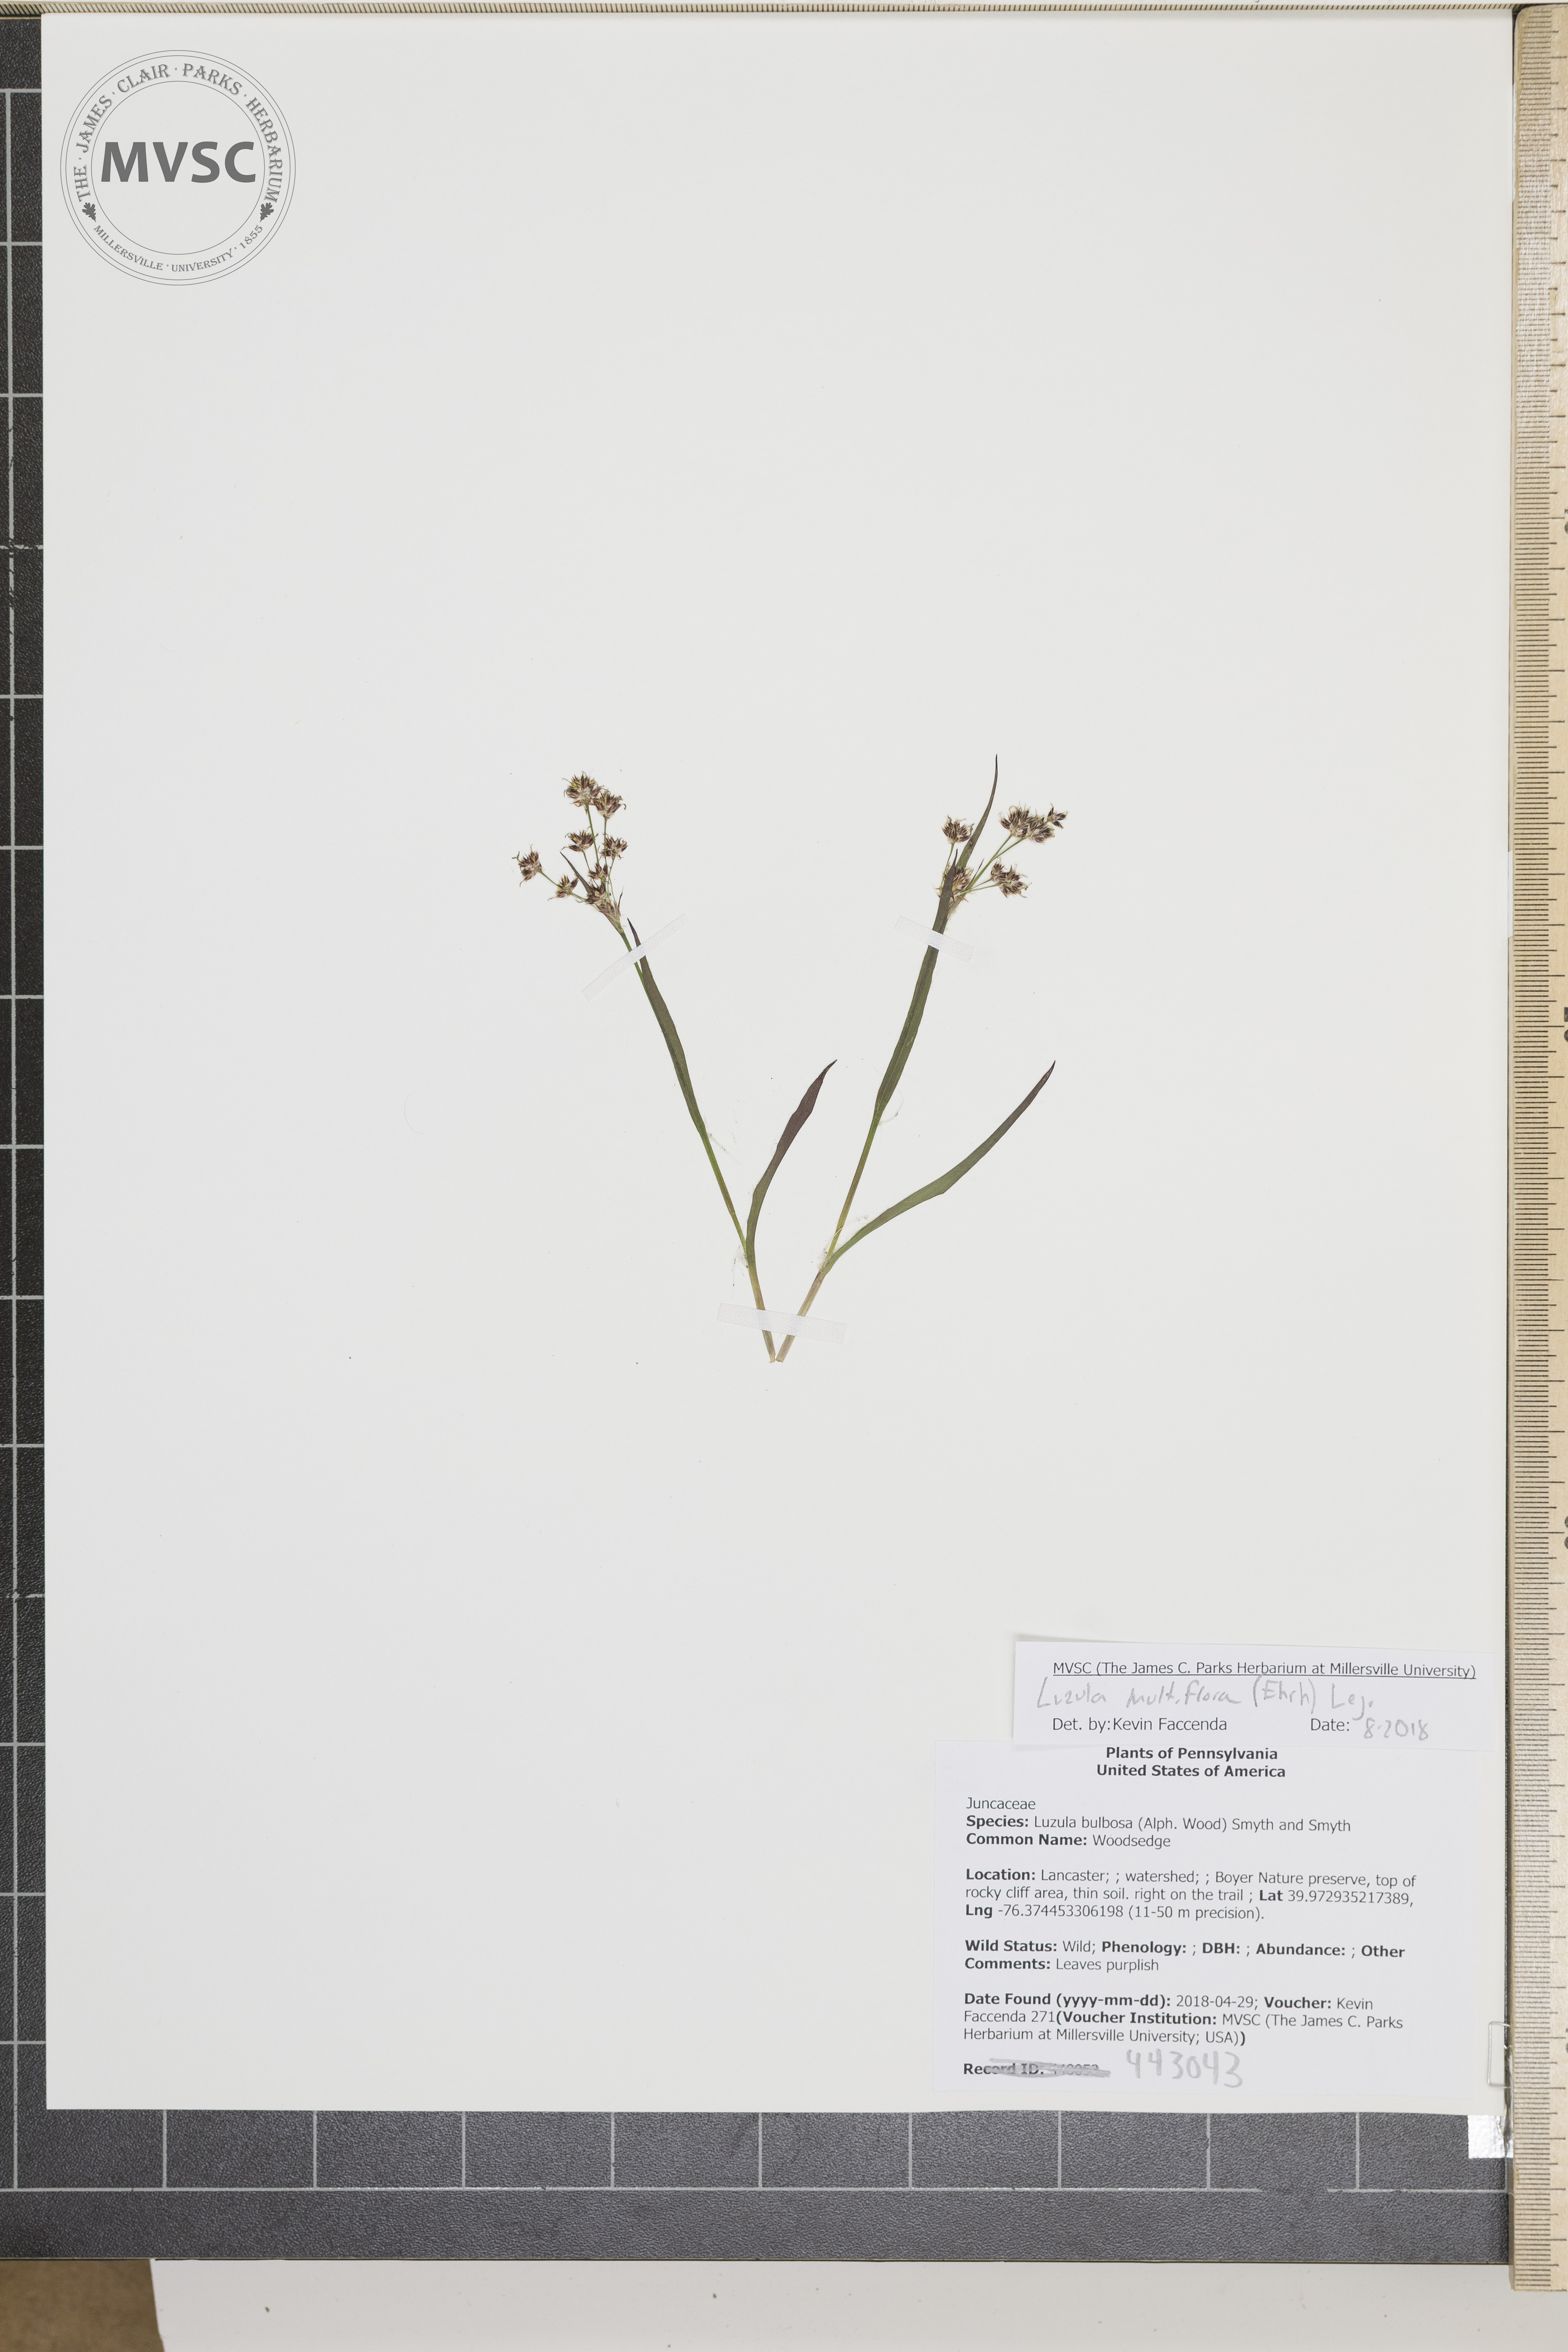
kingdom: Plantae
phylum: Tracheophyta
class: Liliopsida
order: Poales
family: Juncaceae
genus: Luzula
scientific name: Luzula multiflora
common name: Woodrush
